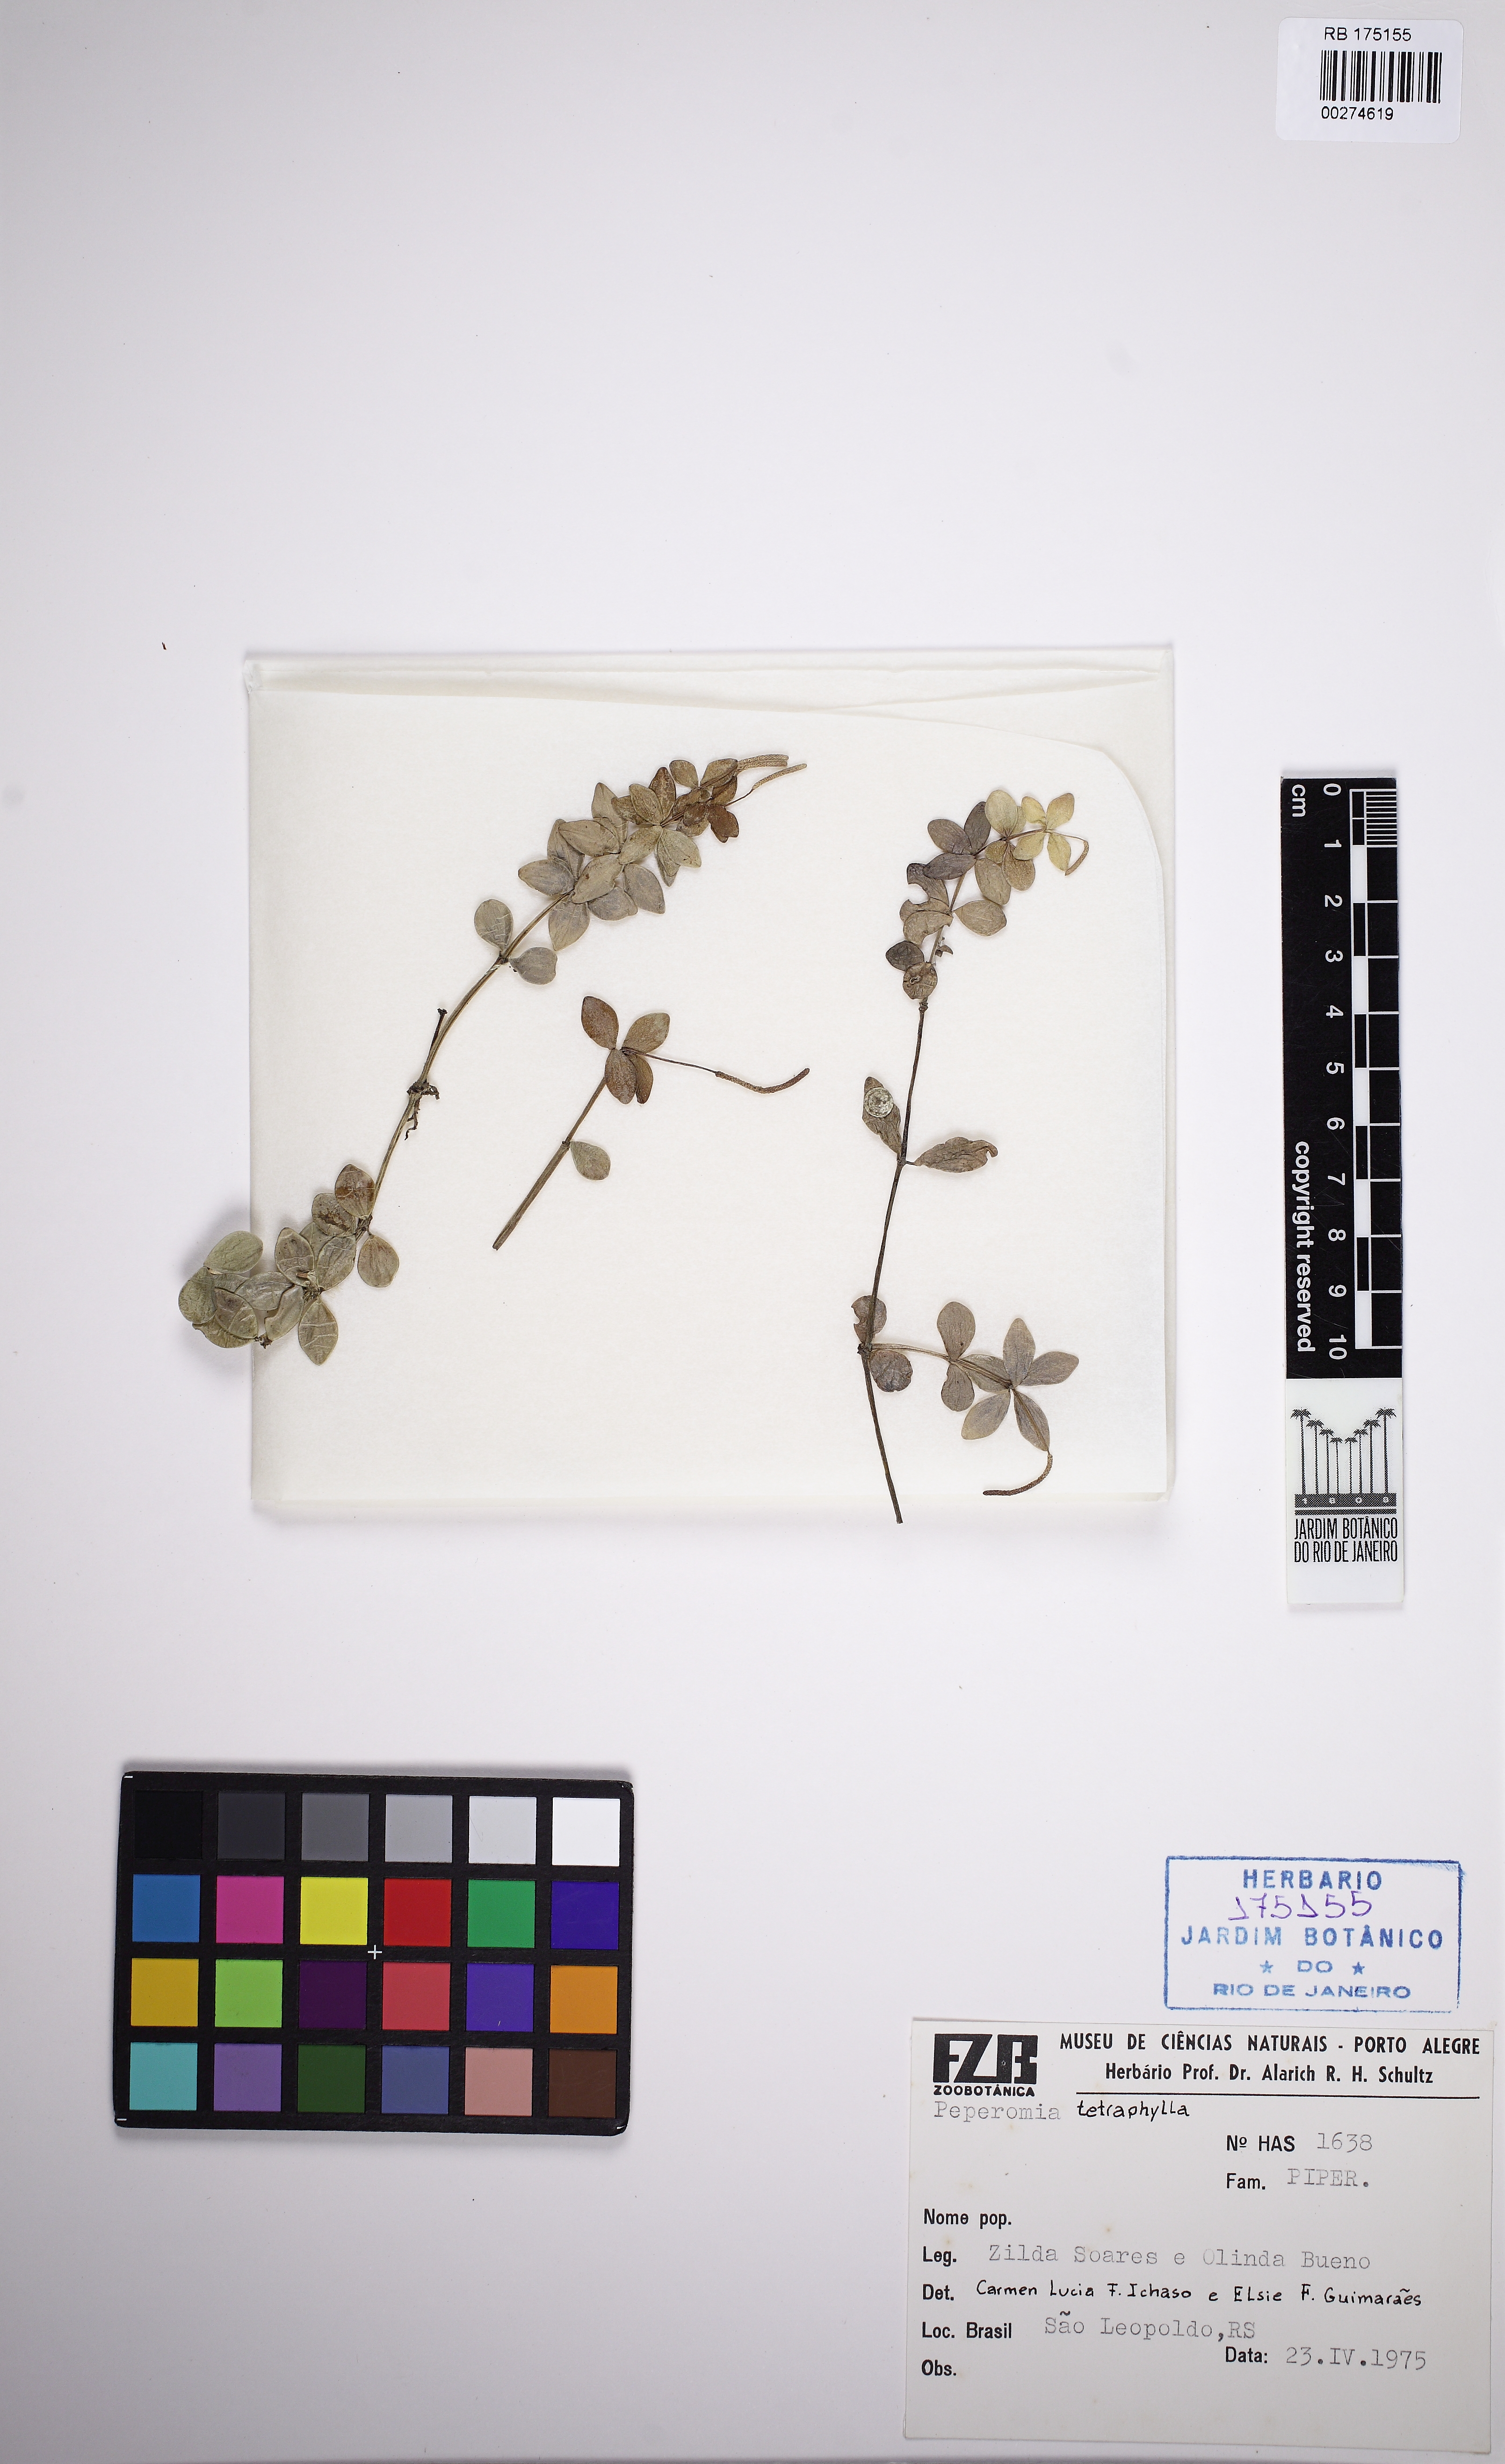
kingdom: Plantae
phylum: Tracheophyta
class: Magnoliopsida
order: Piperales
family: Piperaceae
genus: Peperomia
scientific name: Peperomia tetraphylla
